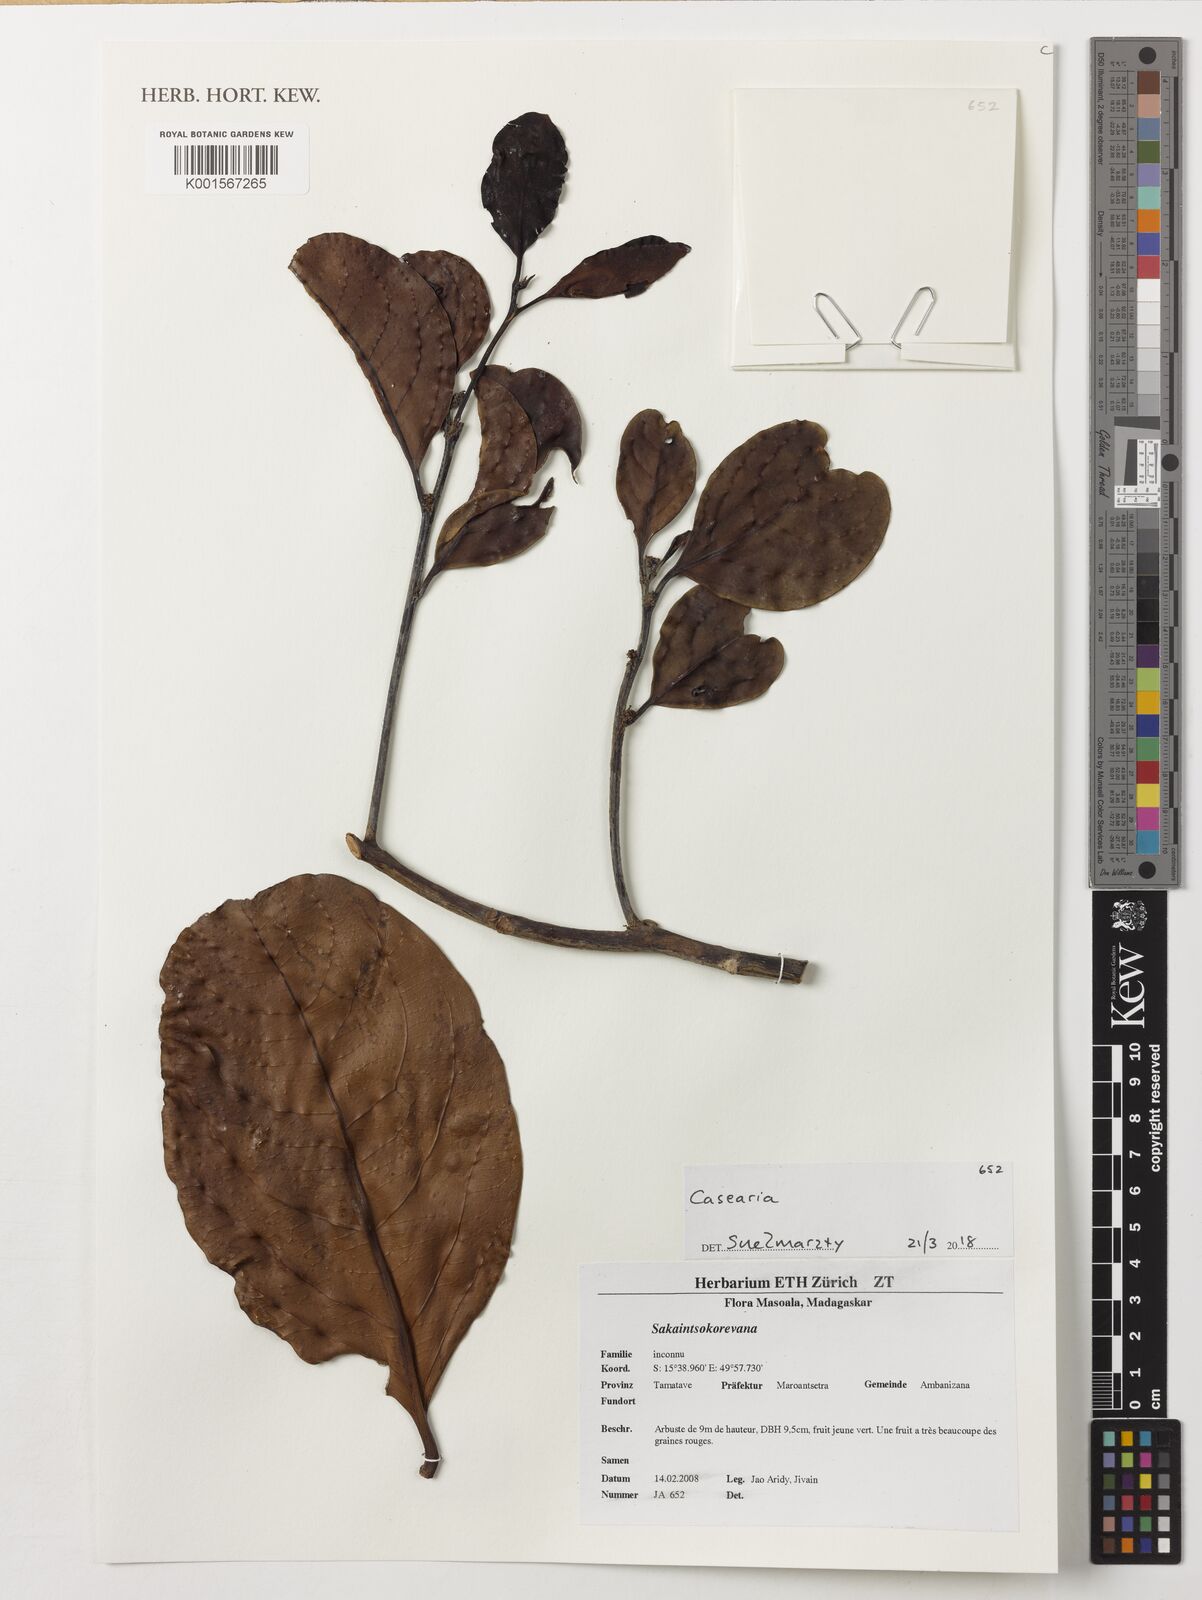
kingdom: Plantae
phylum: Tracheophyta
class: Magnoliopsida
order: Malpighiales
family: Salicaceae
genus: Casearia
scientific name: Casearia
